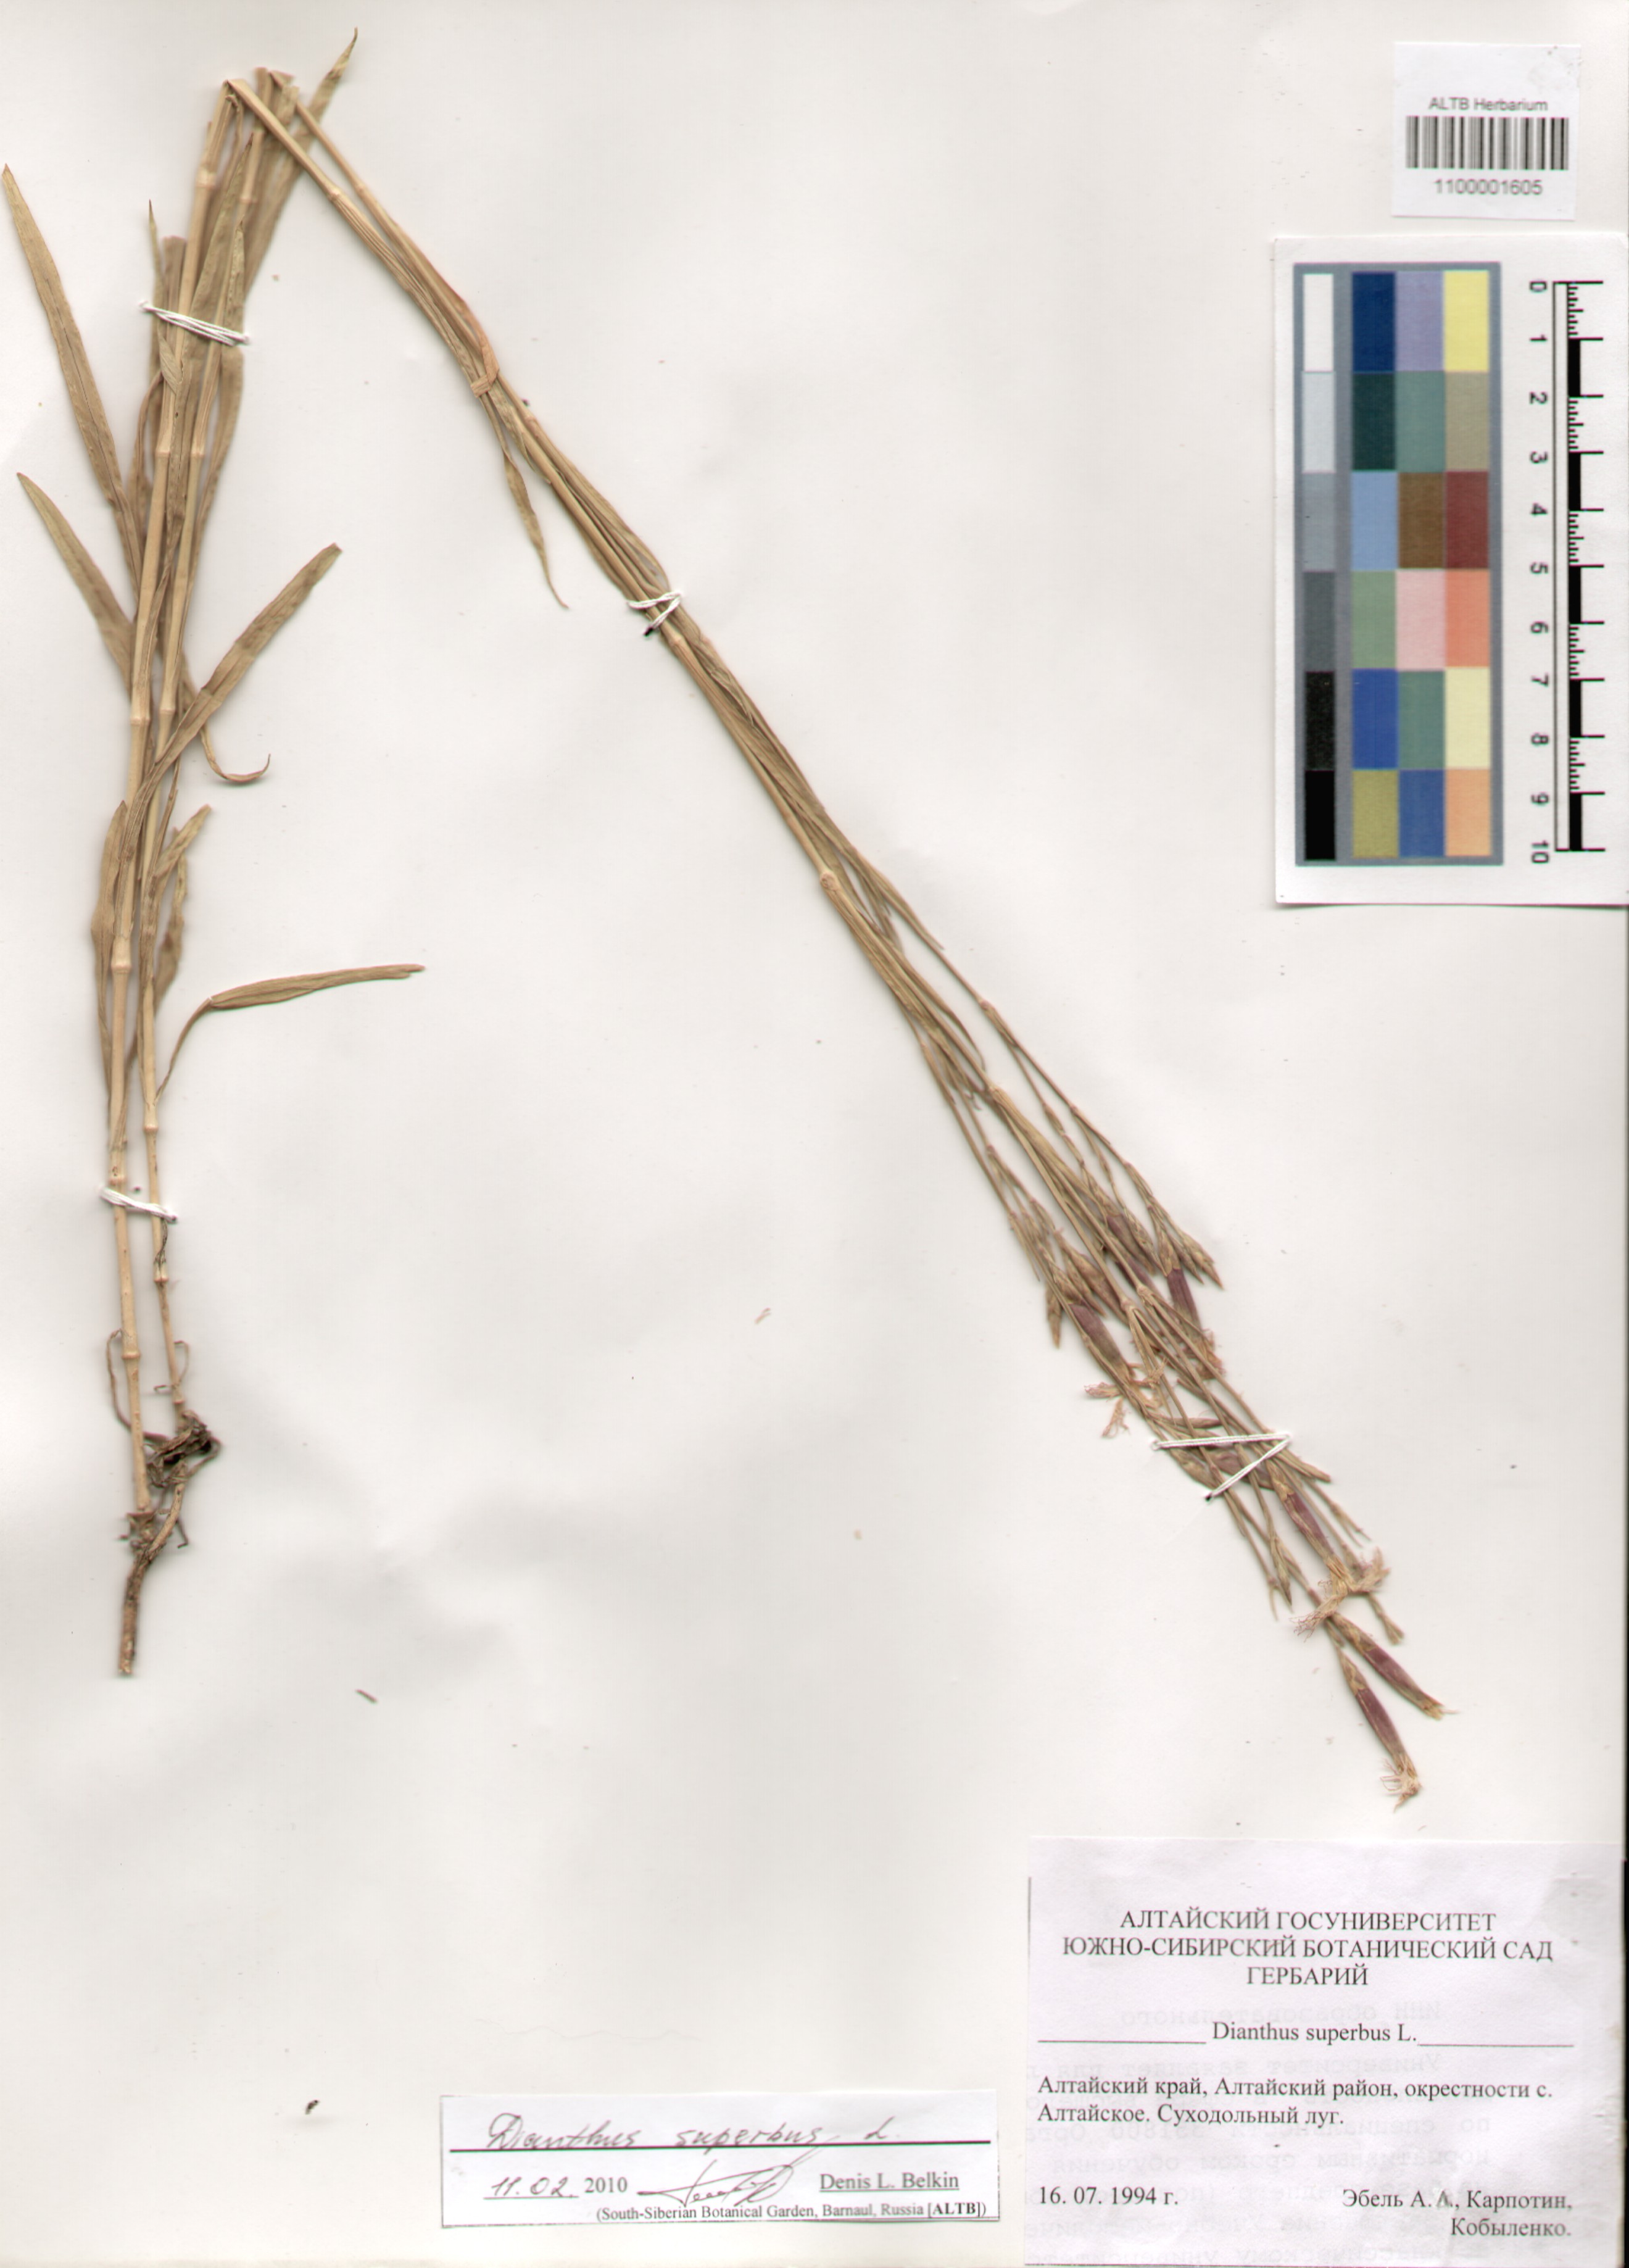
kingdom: Plantae
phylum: Tracheophyta
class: Magnoliopsida
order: Caryophyllales
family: Caryophyllaceae
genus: Dianthus
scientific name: Dianthus superbus
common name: Fringed pink
